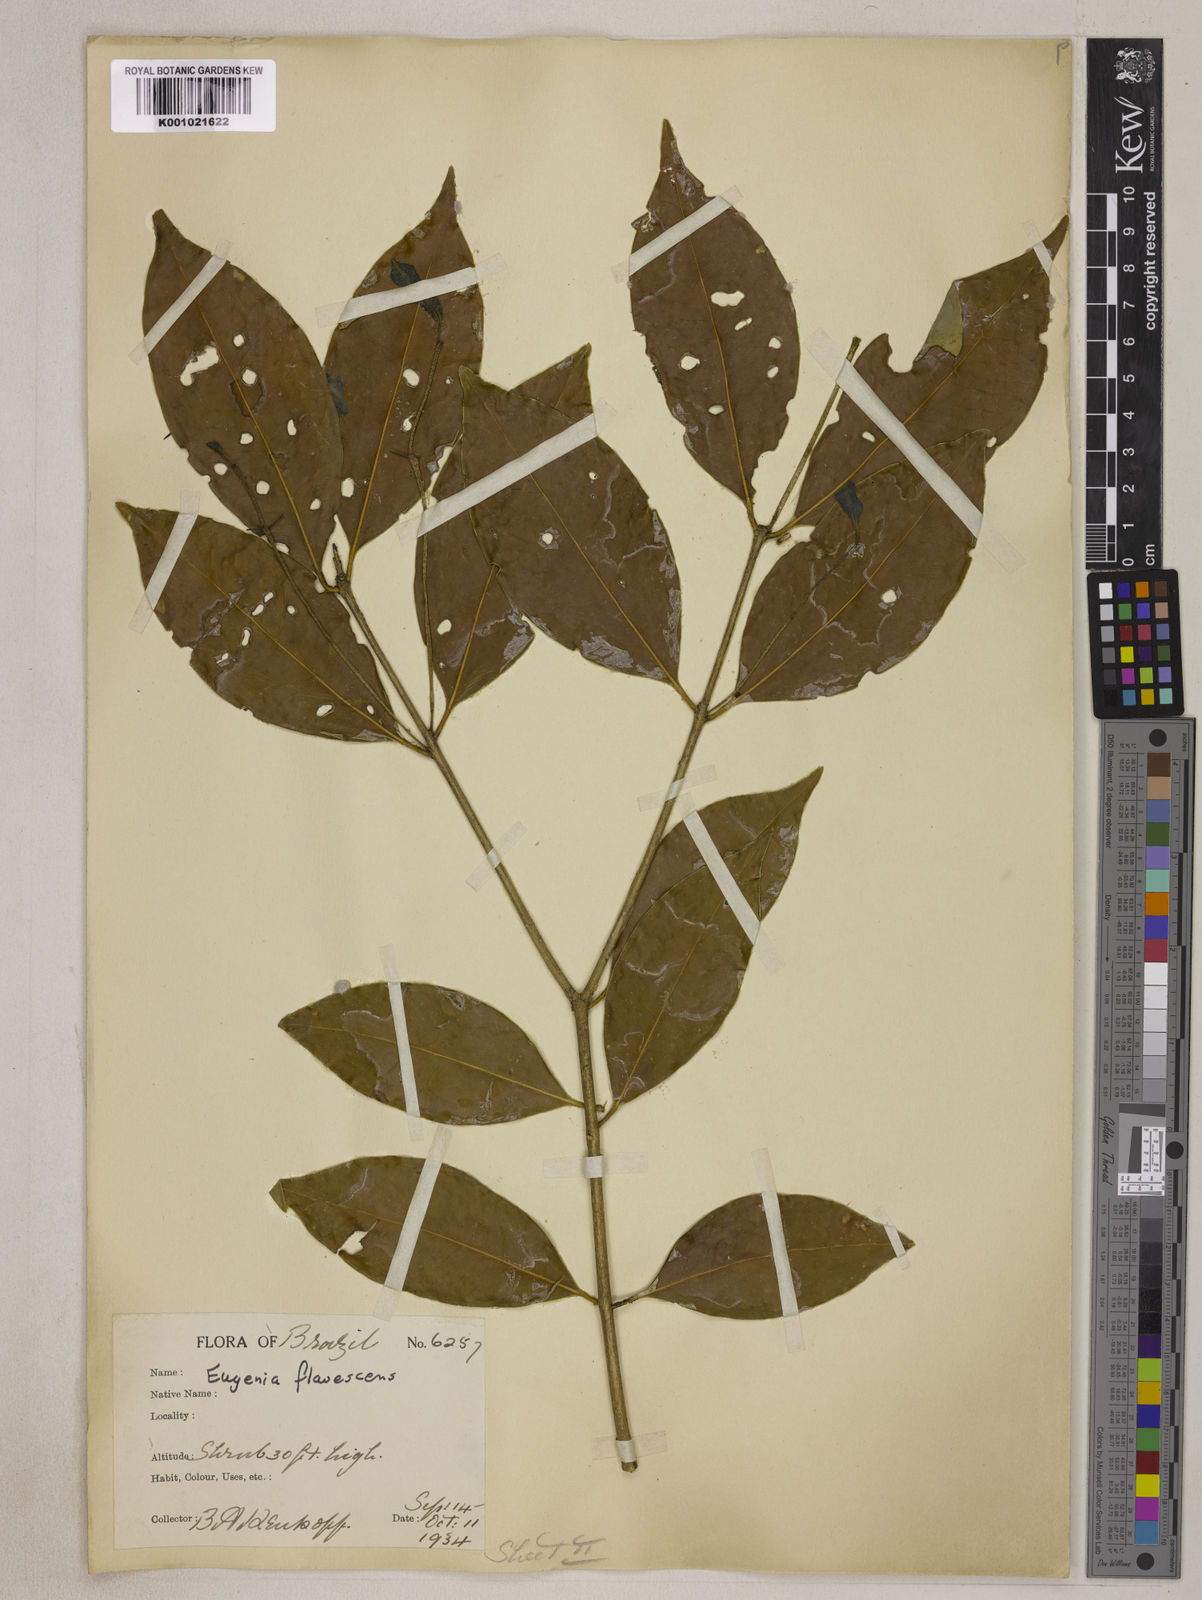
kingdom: Plantae
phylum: Tracheophyta
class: Magnoliopsida
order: Myrtales
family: Myrtaceae
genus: Eugenia
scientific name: Eugenia flavescens
